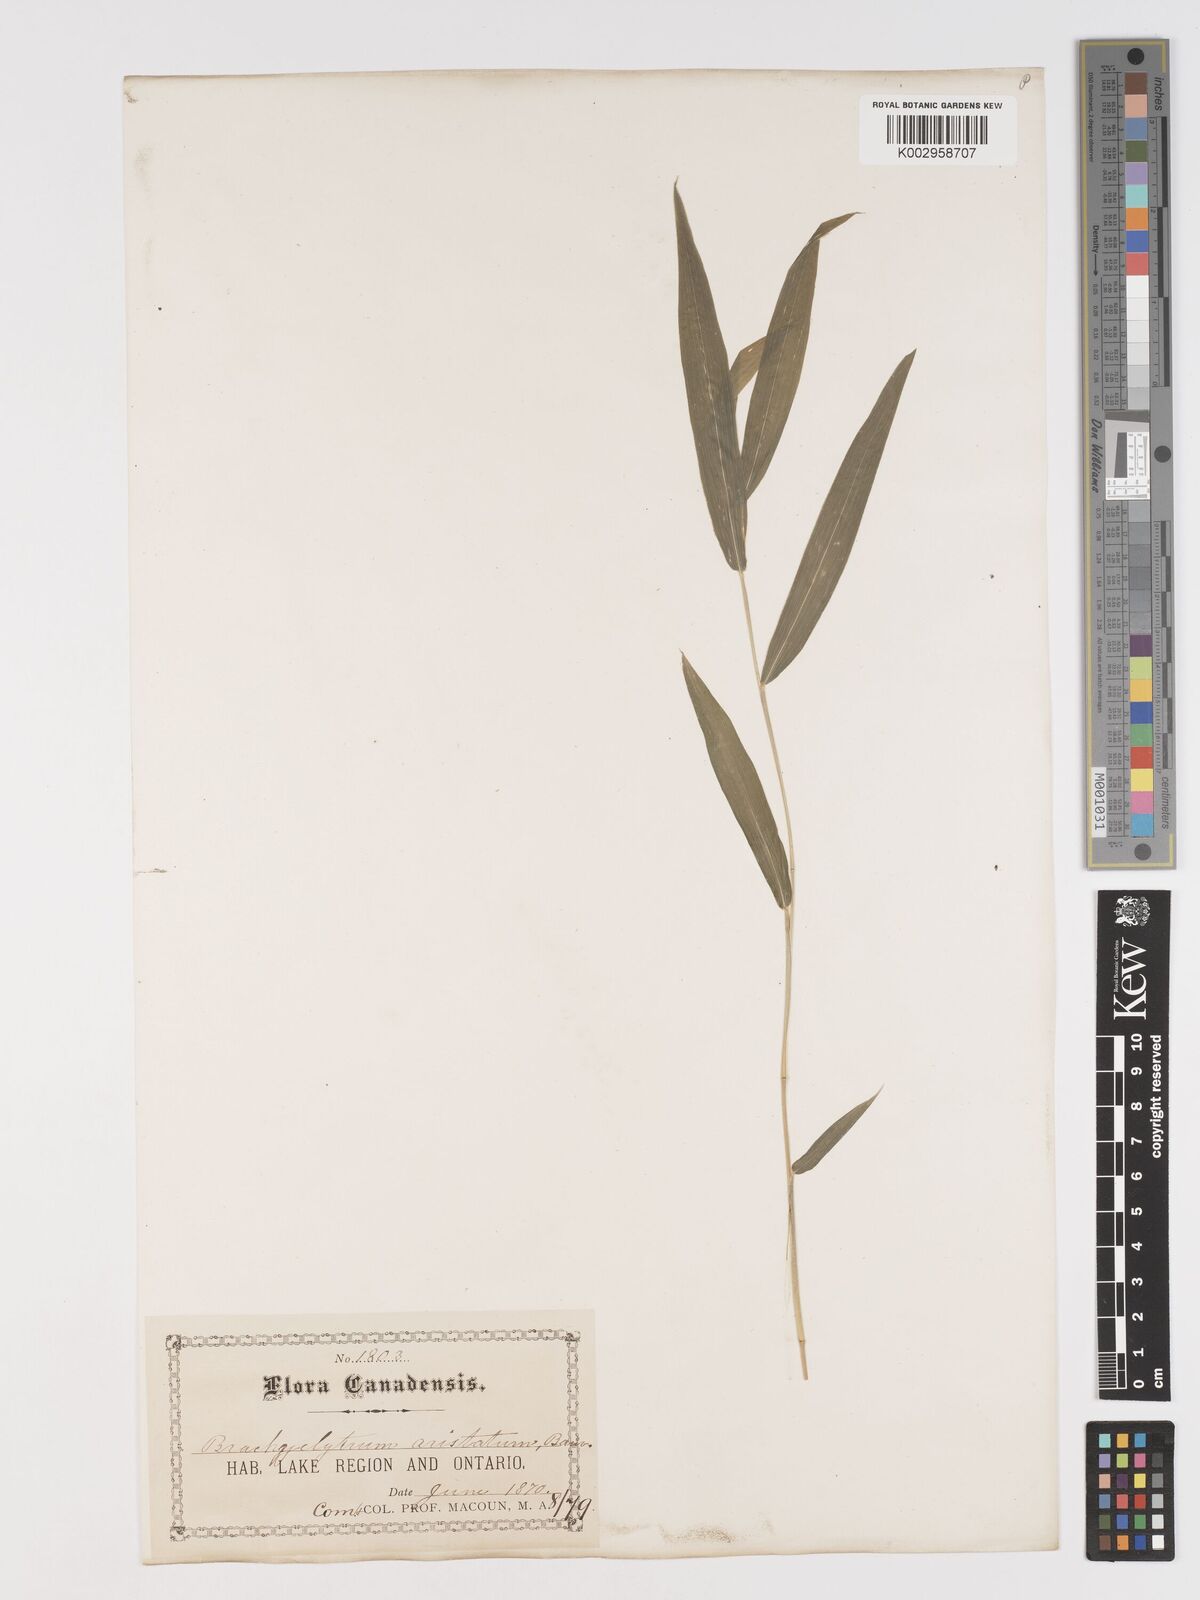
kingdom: Plantae
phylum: Tracheophyta
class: Liliopsida
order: Poales
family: Poaceae
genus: Brachyelytrum
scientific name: Brachyelytrum aristosum
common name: Northern shorthusk
